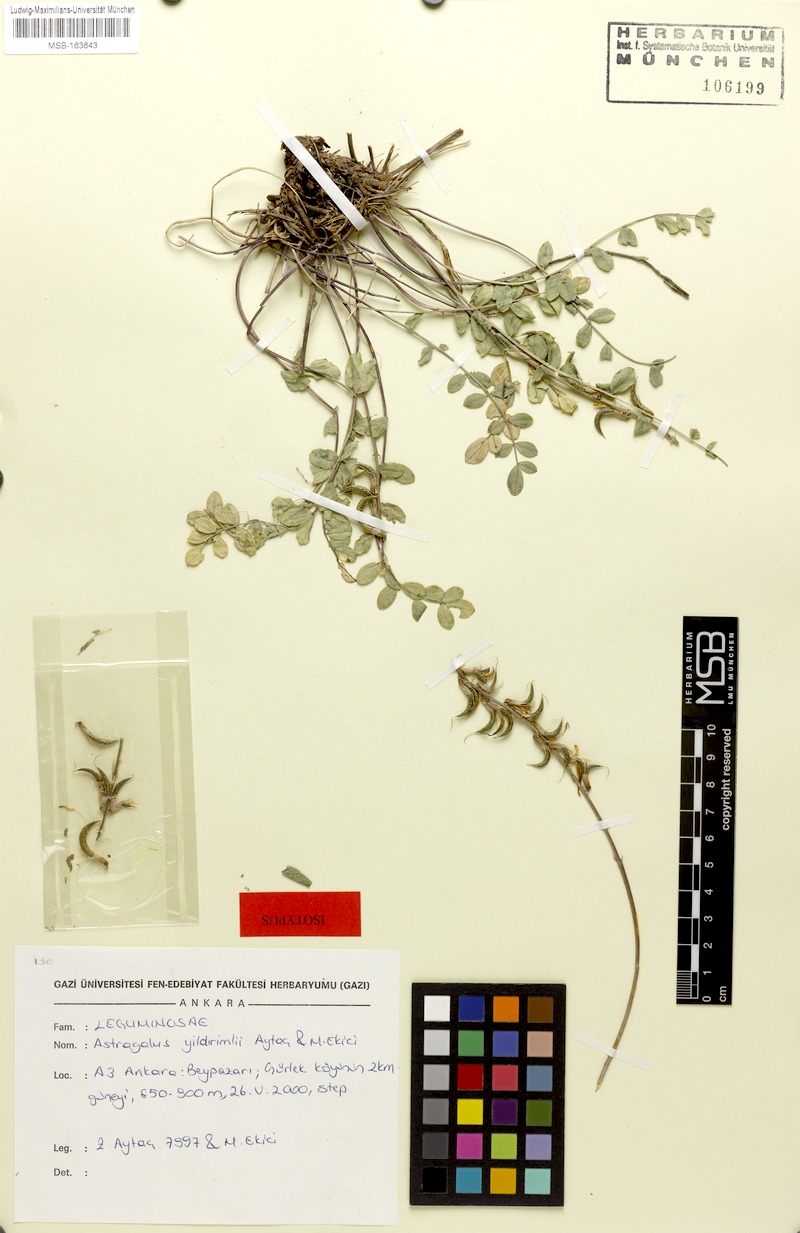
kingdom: Plantae
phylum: Tracheophyta
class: Magnoliopsida
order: Fabales
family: Fabaceae
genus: Astragalus
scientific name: Astragalus yildirimlii
